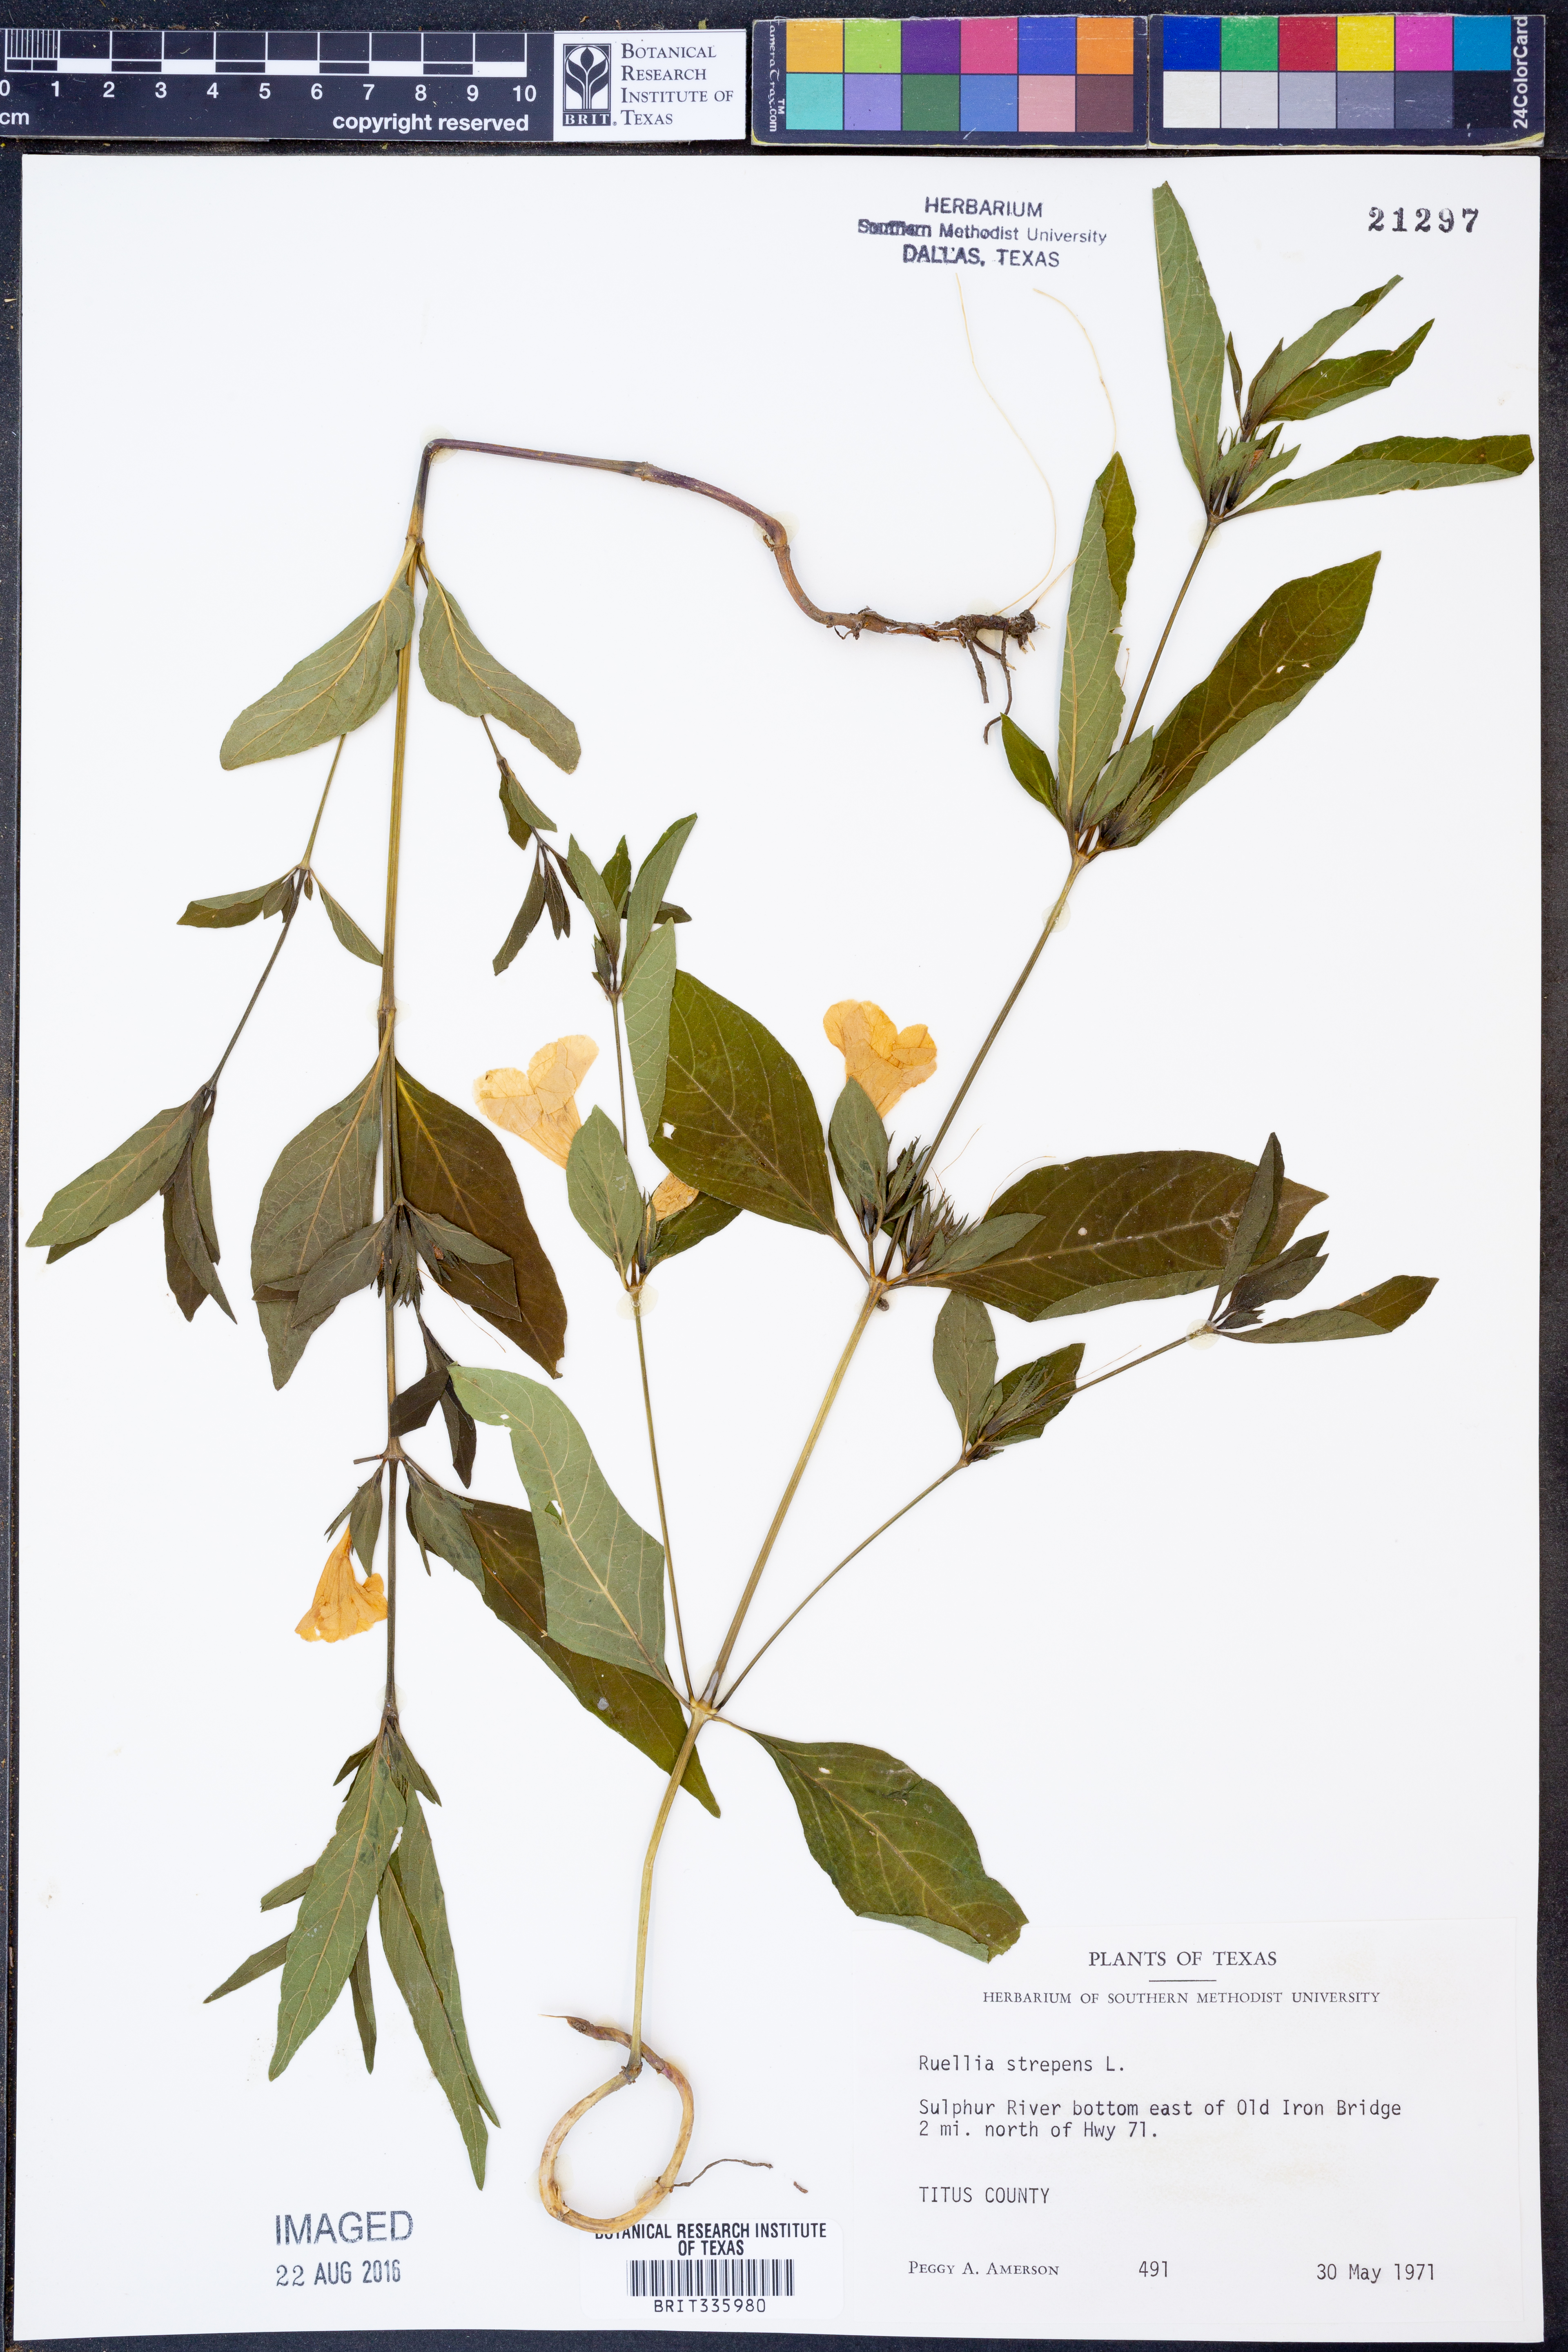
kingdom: Plantae
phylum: Tracheophyta
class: Magnoliopsida
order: Lamiales
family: Acanthaceae
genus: Ruellia
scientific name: Ruellia strepens
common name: Limestone wild petunia
